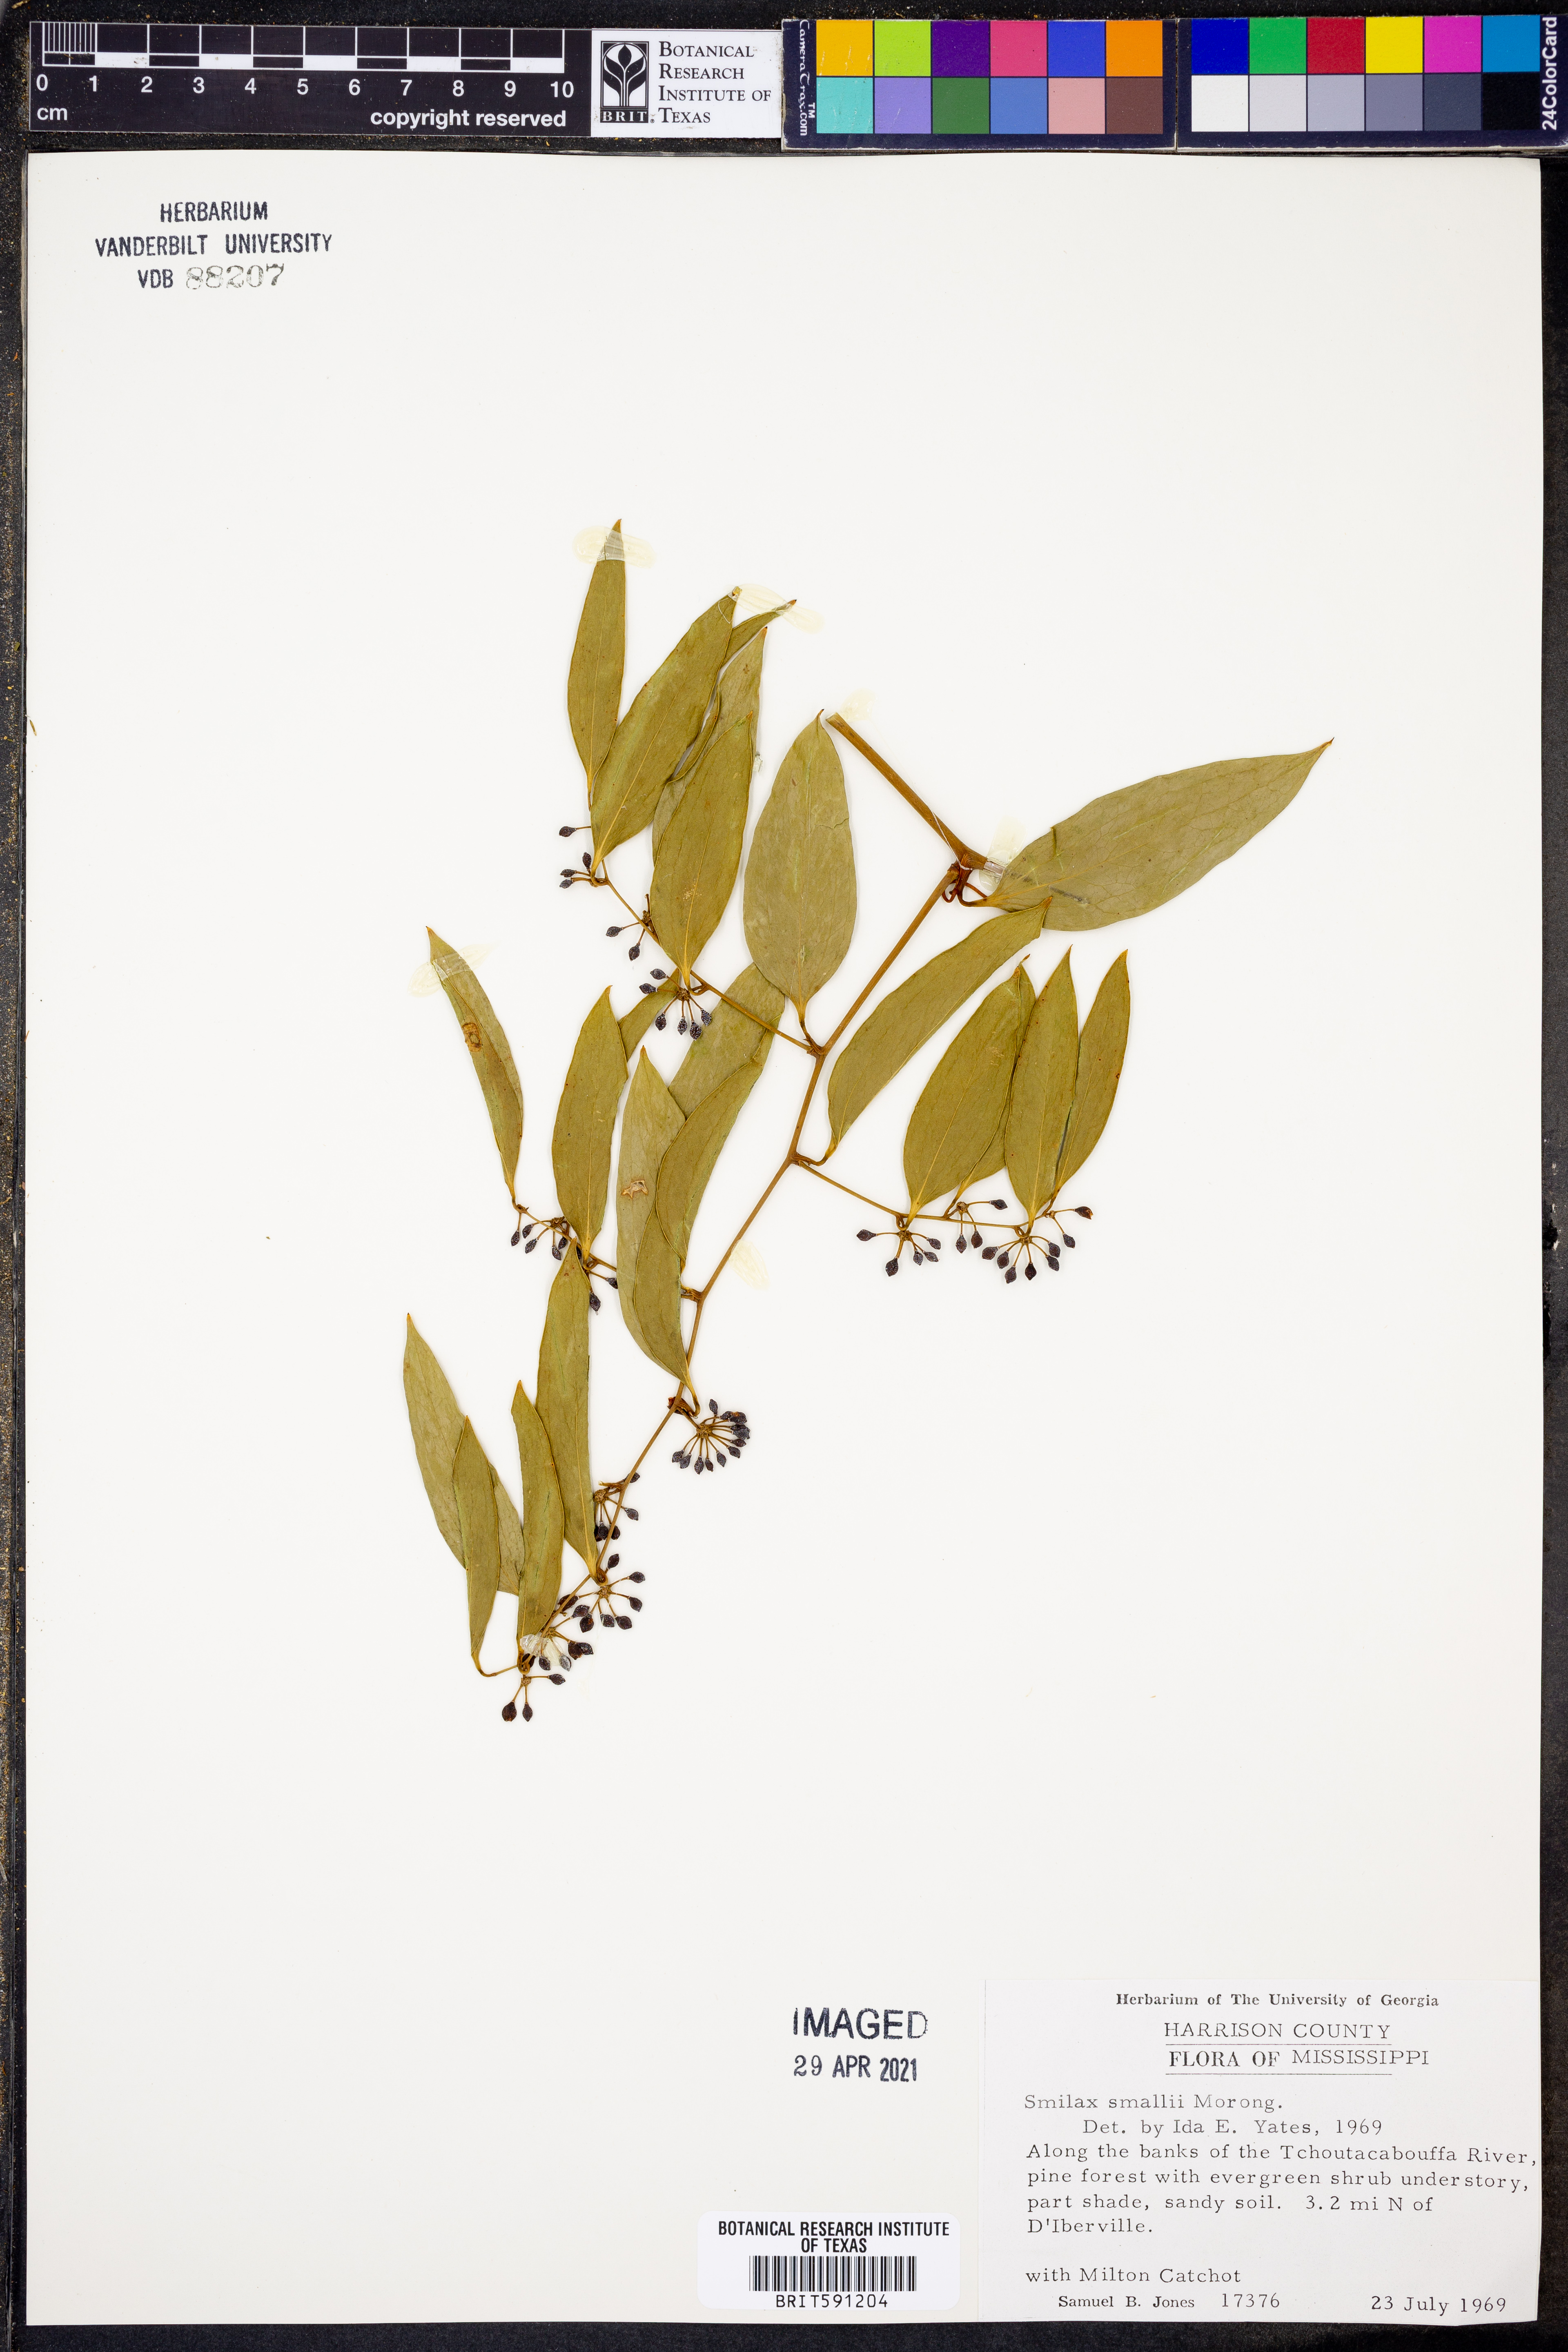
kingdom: Plantae
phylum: Tracheophyta
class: Liliopsida
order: Liliales
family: Smilacaceae
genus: Smilax
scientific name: Smilax maritima
